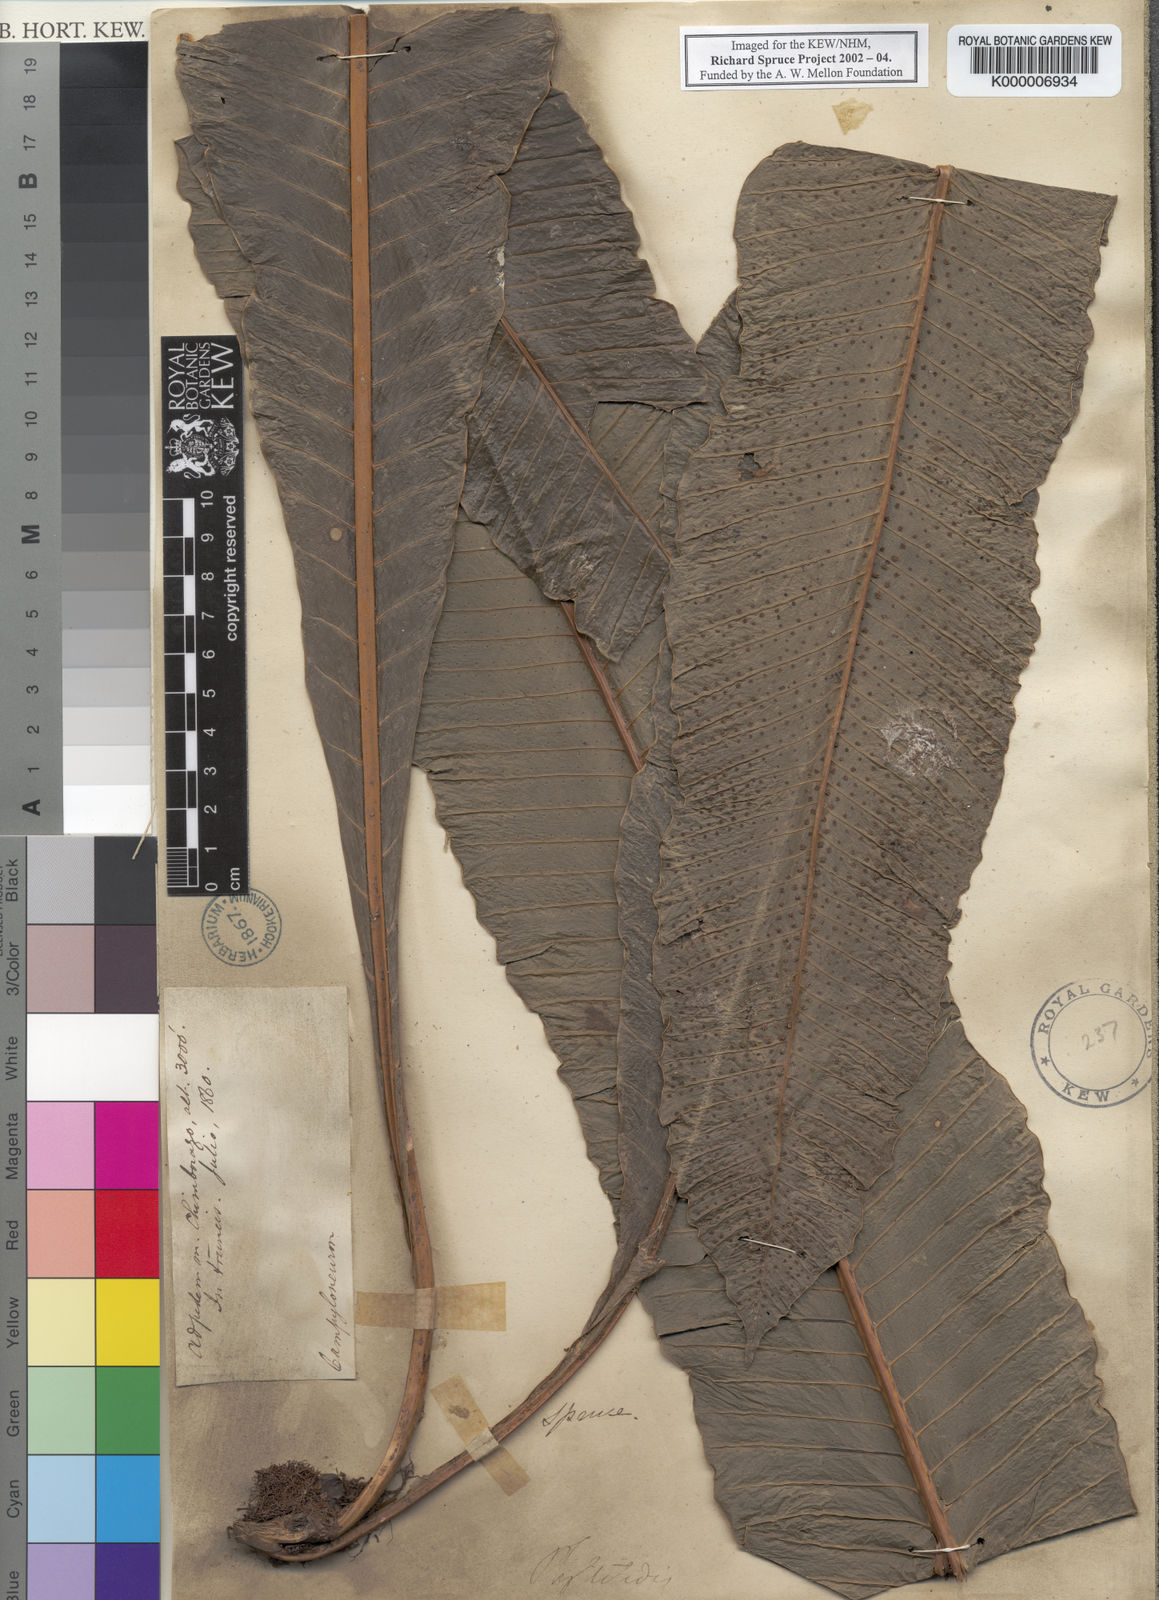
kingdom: Plantae
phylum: Tracheophyta
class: Polypodiopsida
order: Polypodiales
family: Polypodiaceae
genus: Campyloneurum
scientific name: Campyloneurum phyllitidis
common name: Cow-tongue fern
